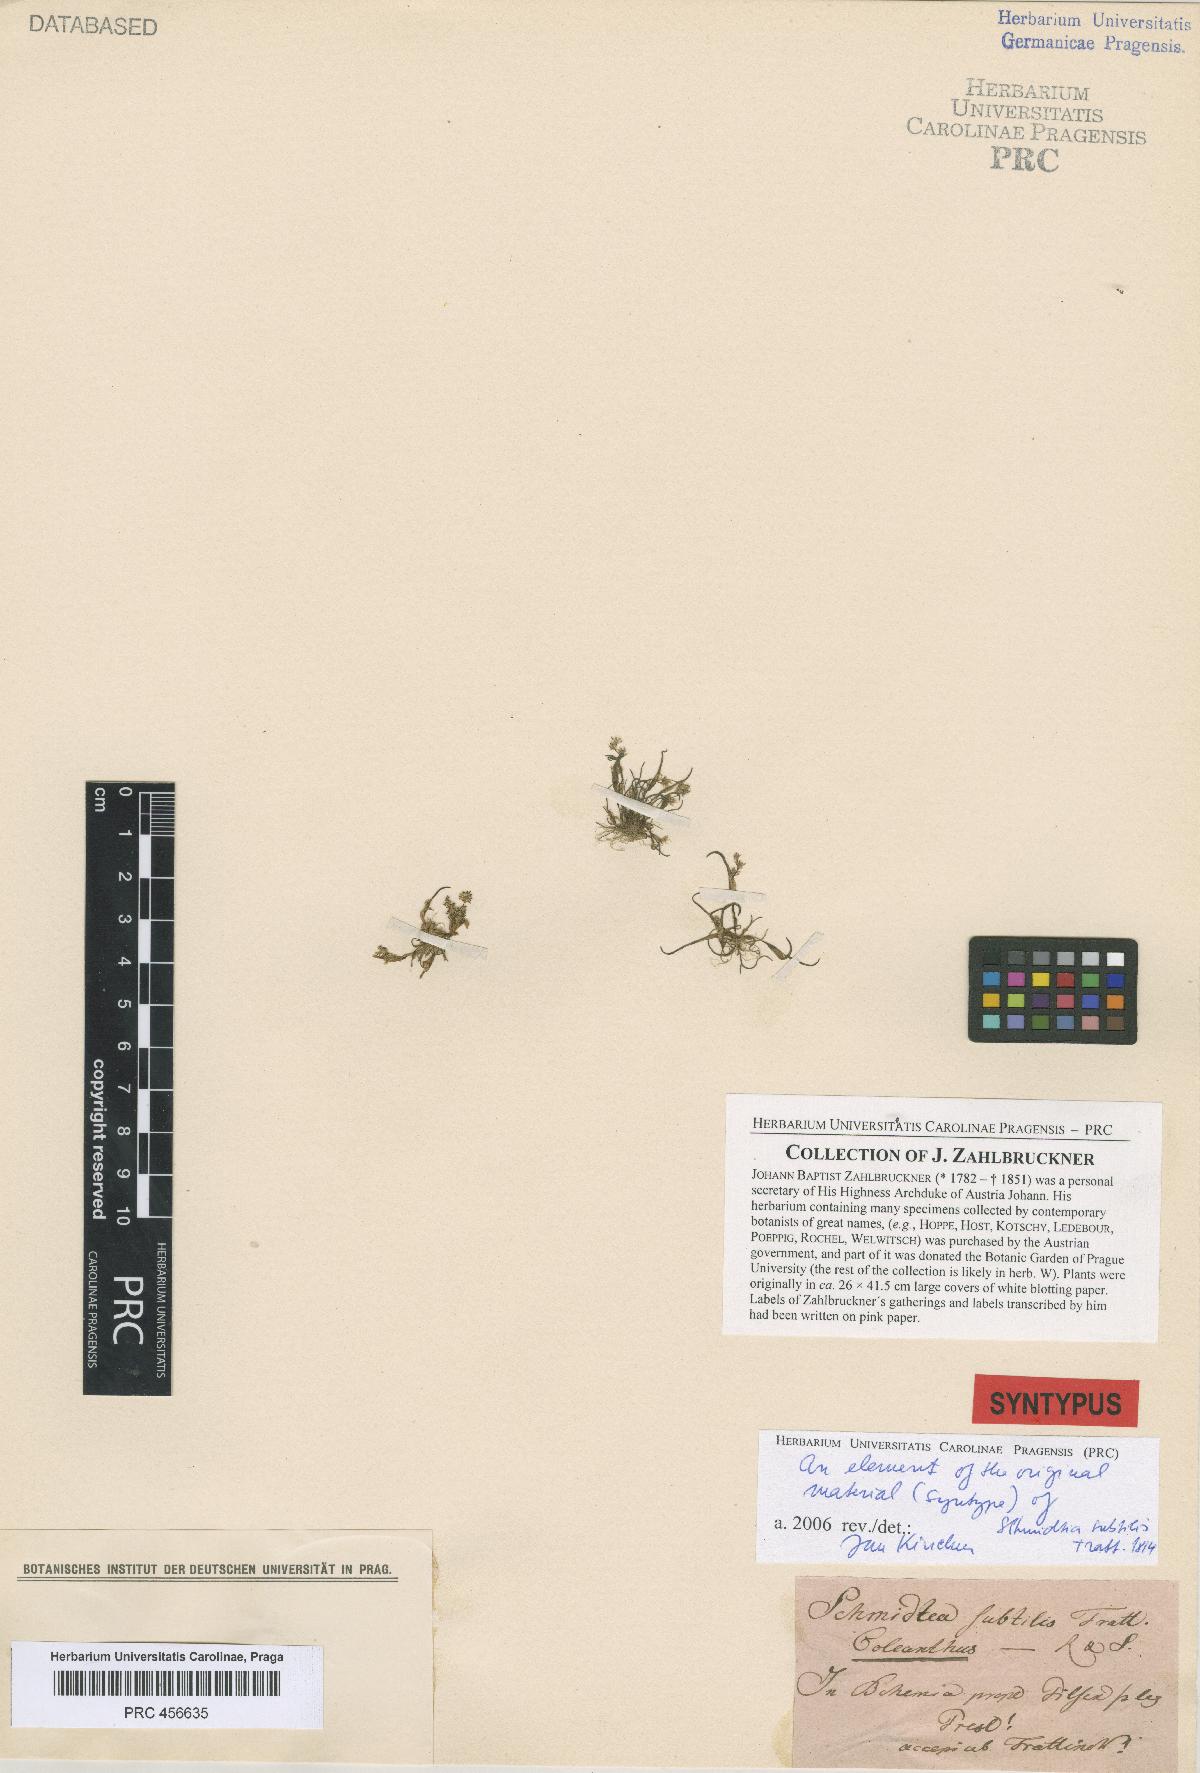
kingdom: Plantae
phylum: Tracheophyta
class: Liliopsida
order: Poales
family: Poaceae
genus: Coleanthus
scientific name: Coleanthus subtilis
